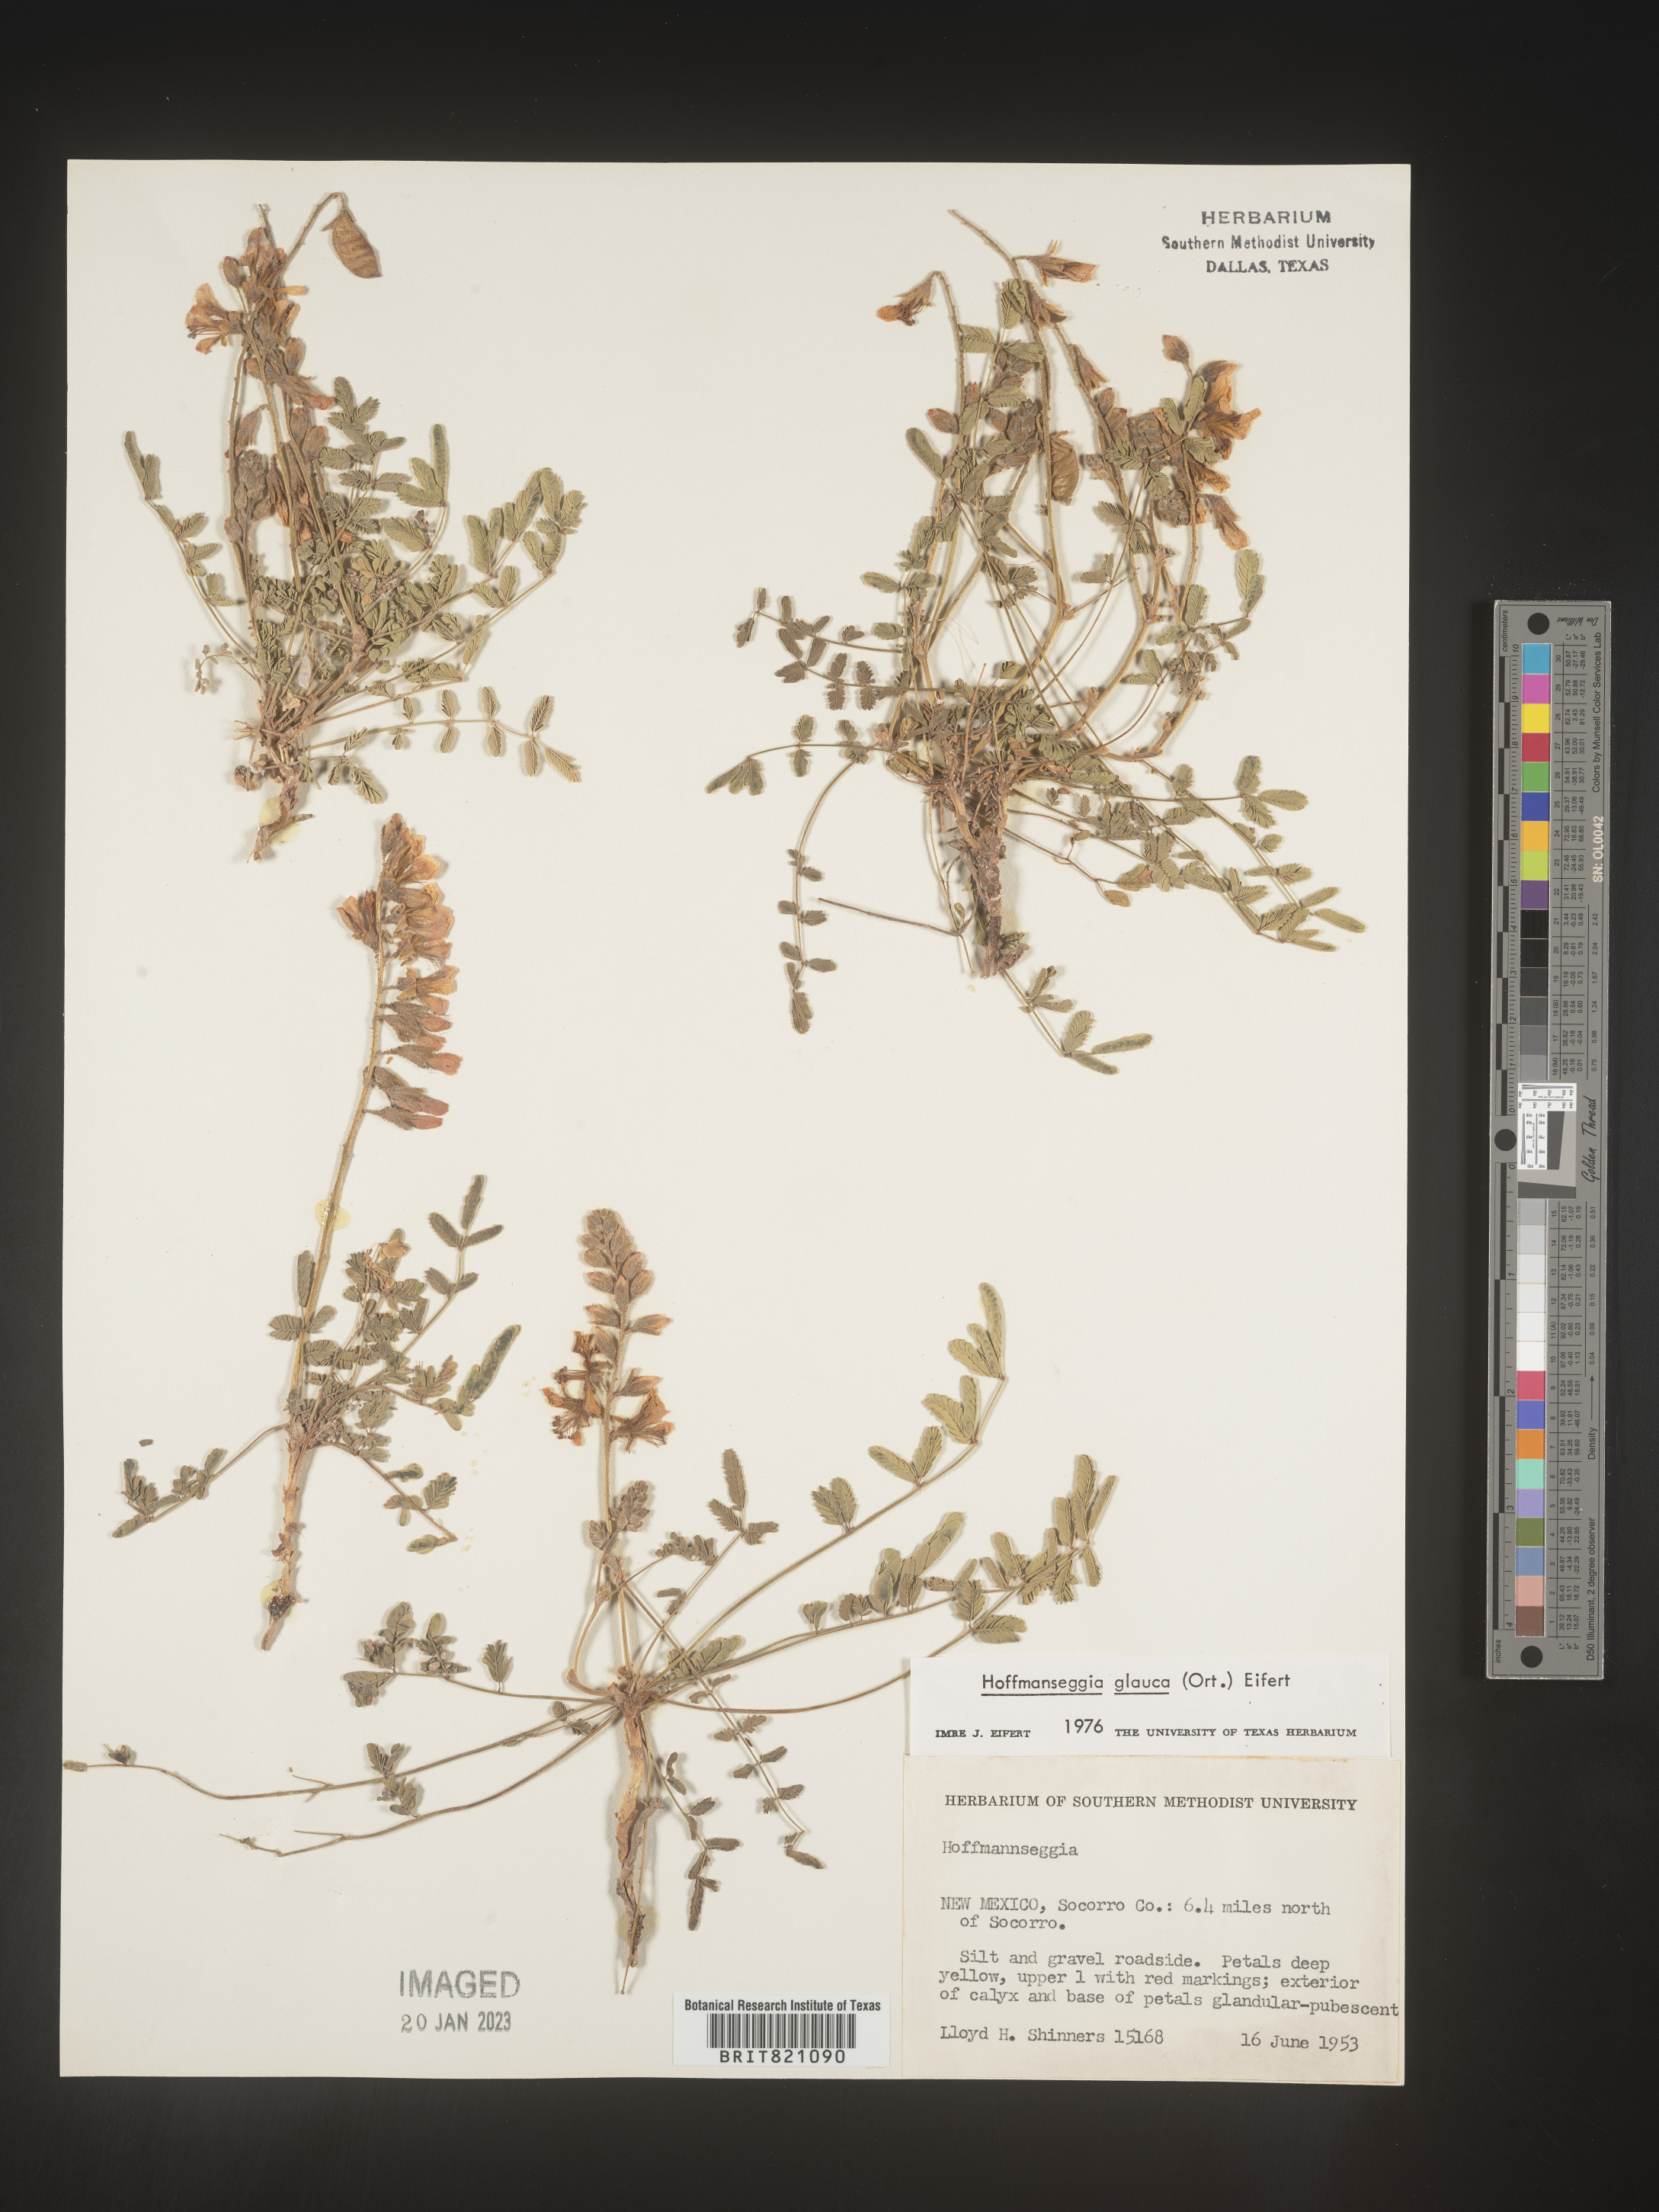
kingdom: Plantae
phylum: Tracheophyta
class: Magnoliopsida
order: Fabales
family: Fabaceae
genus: Hoffmannseggia
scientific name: Hoffmannseggia
